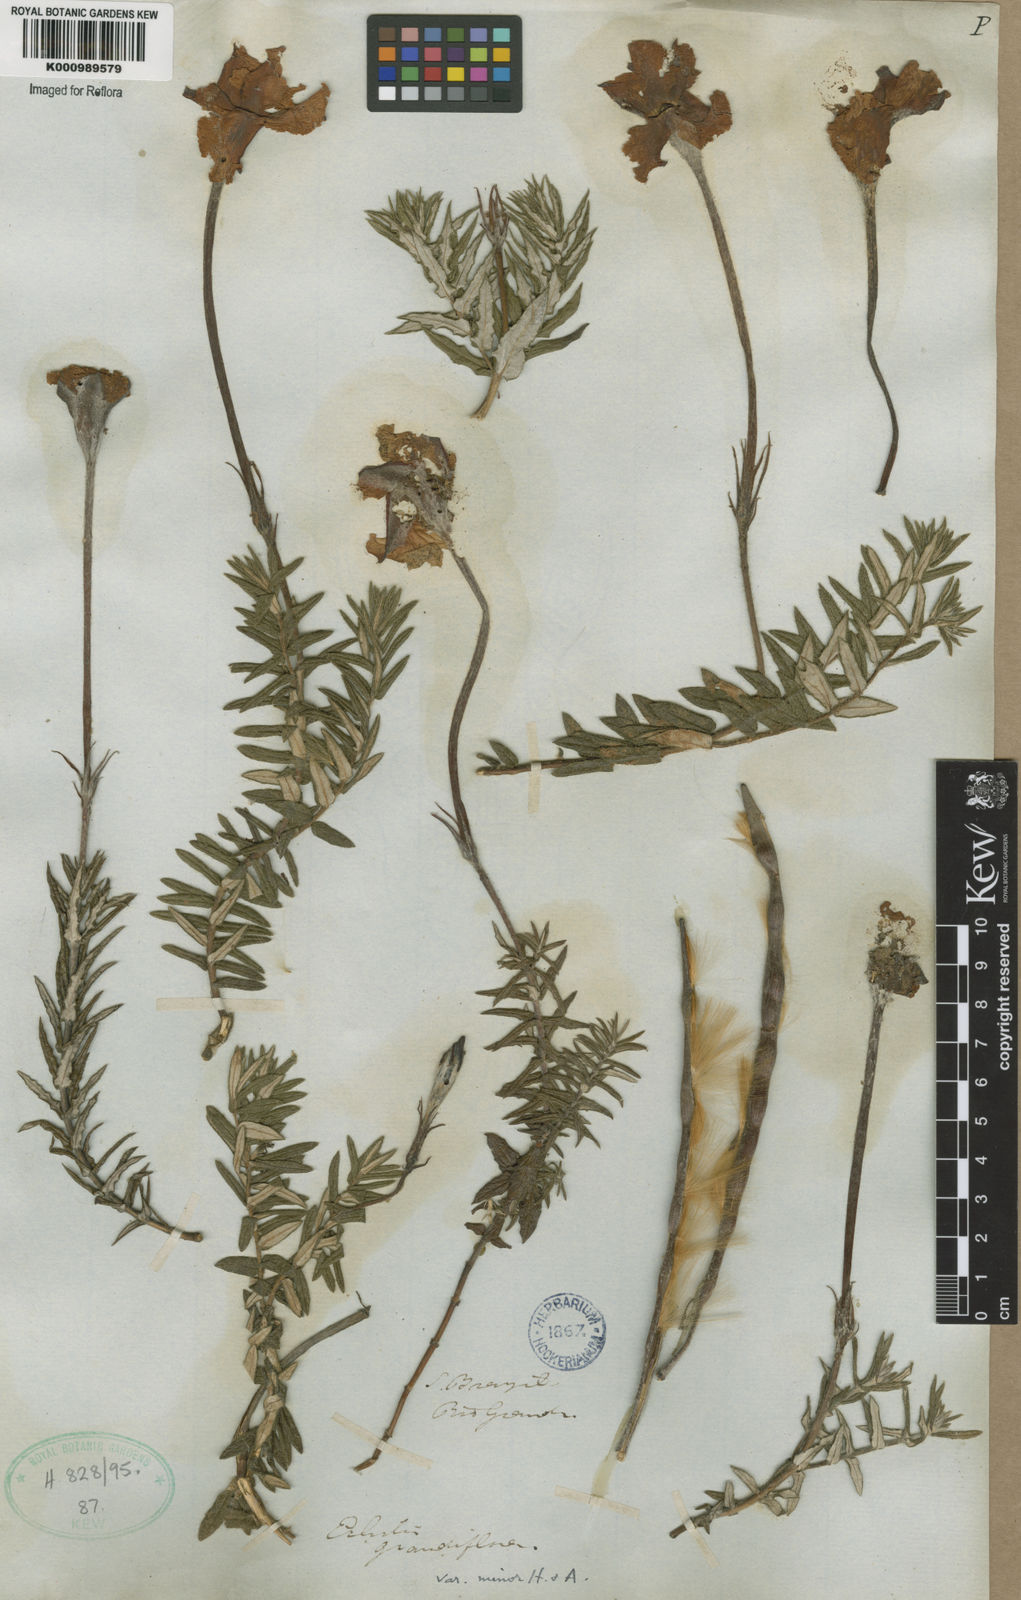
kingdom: Plantae
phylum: Tracheophyta
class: Magnoliopsida
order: Gentianales
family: Apocynaceae
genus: Mandevilla
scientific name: Mandevilla petraea
